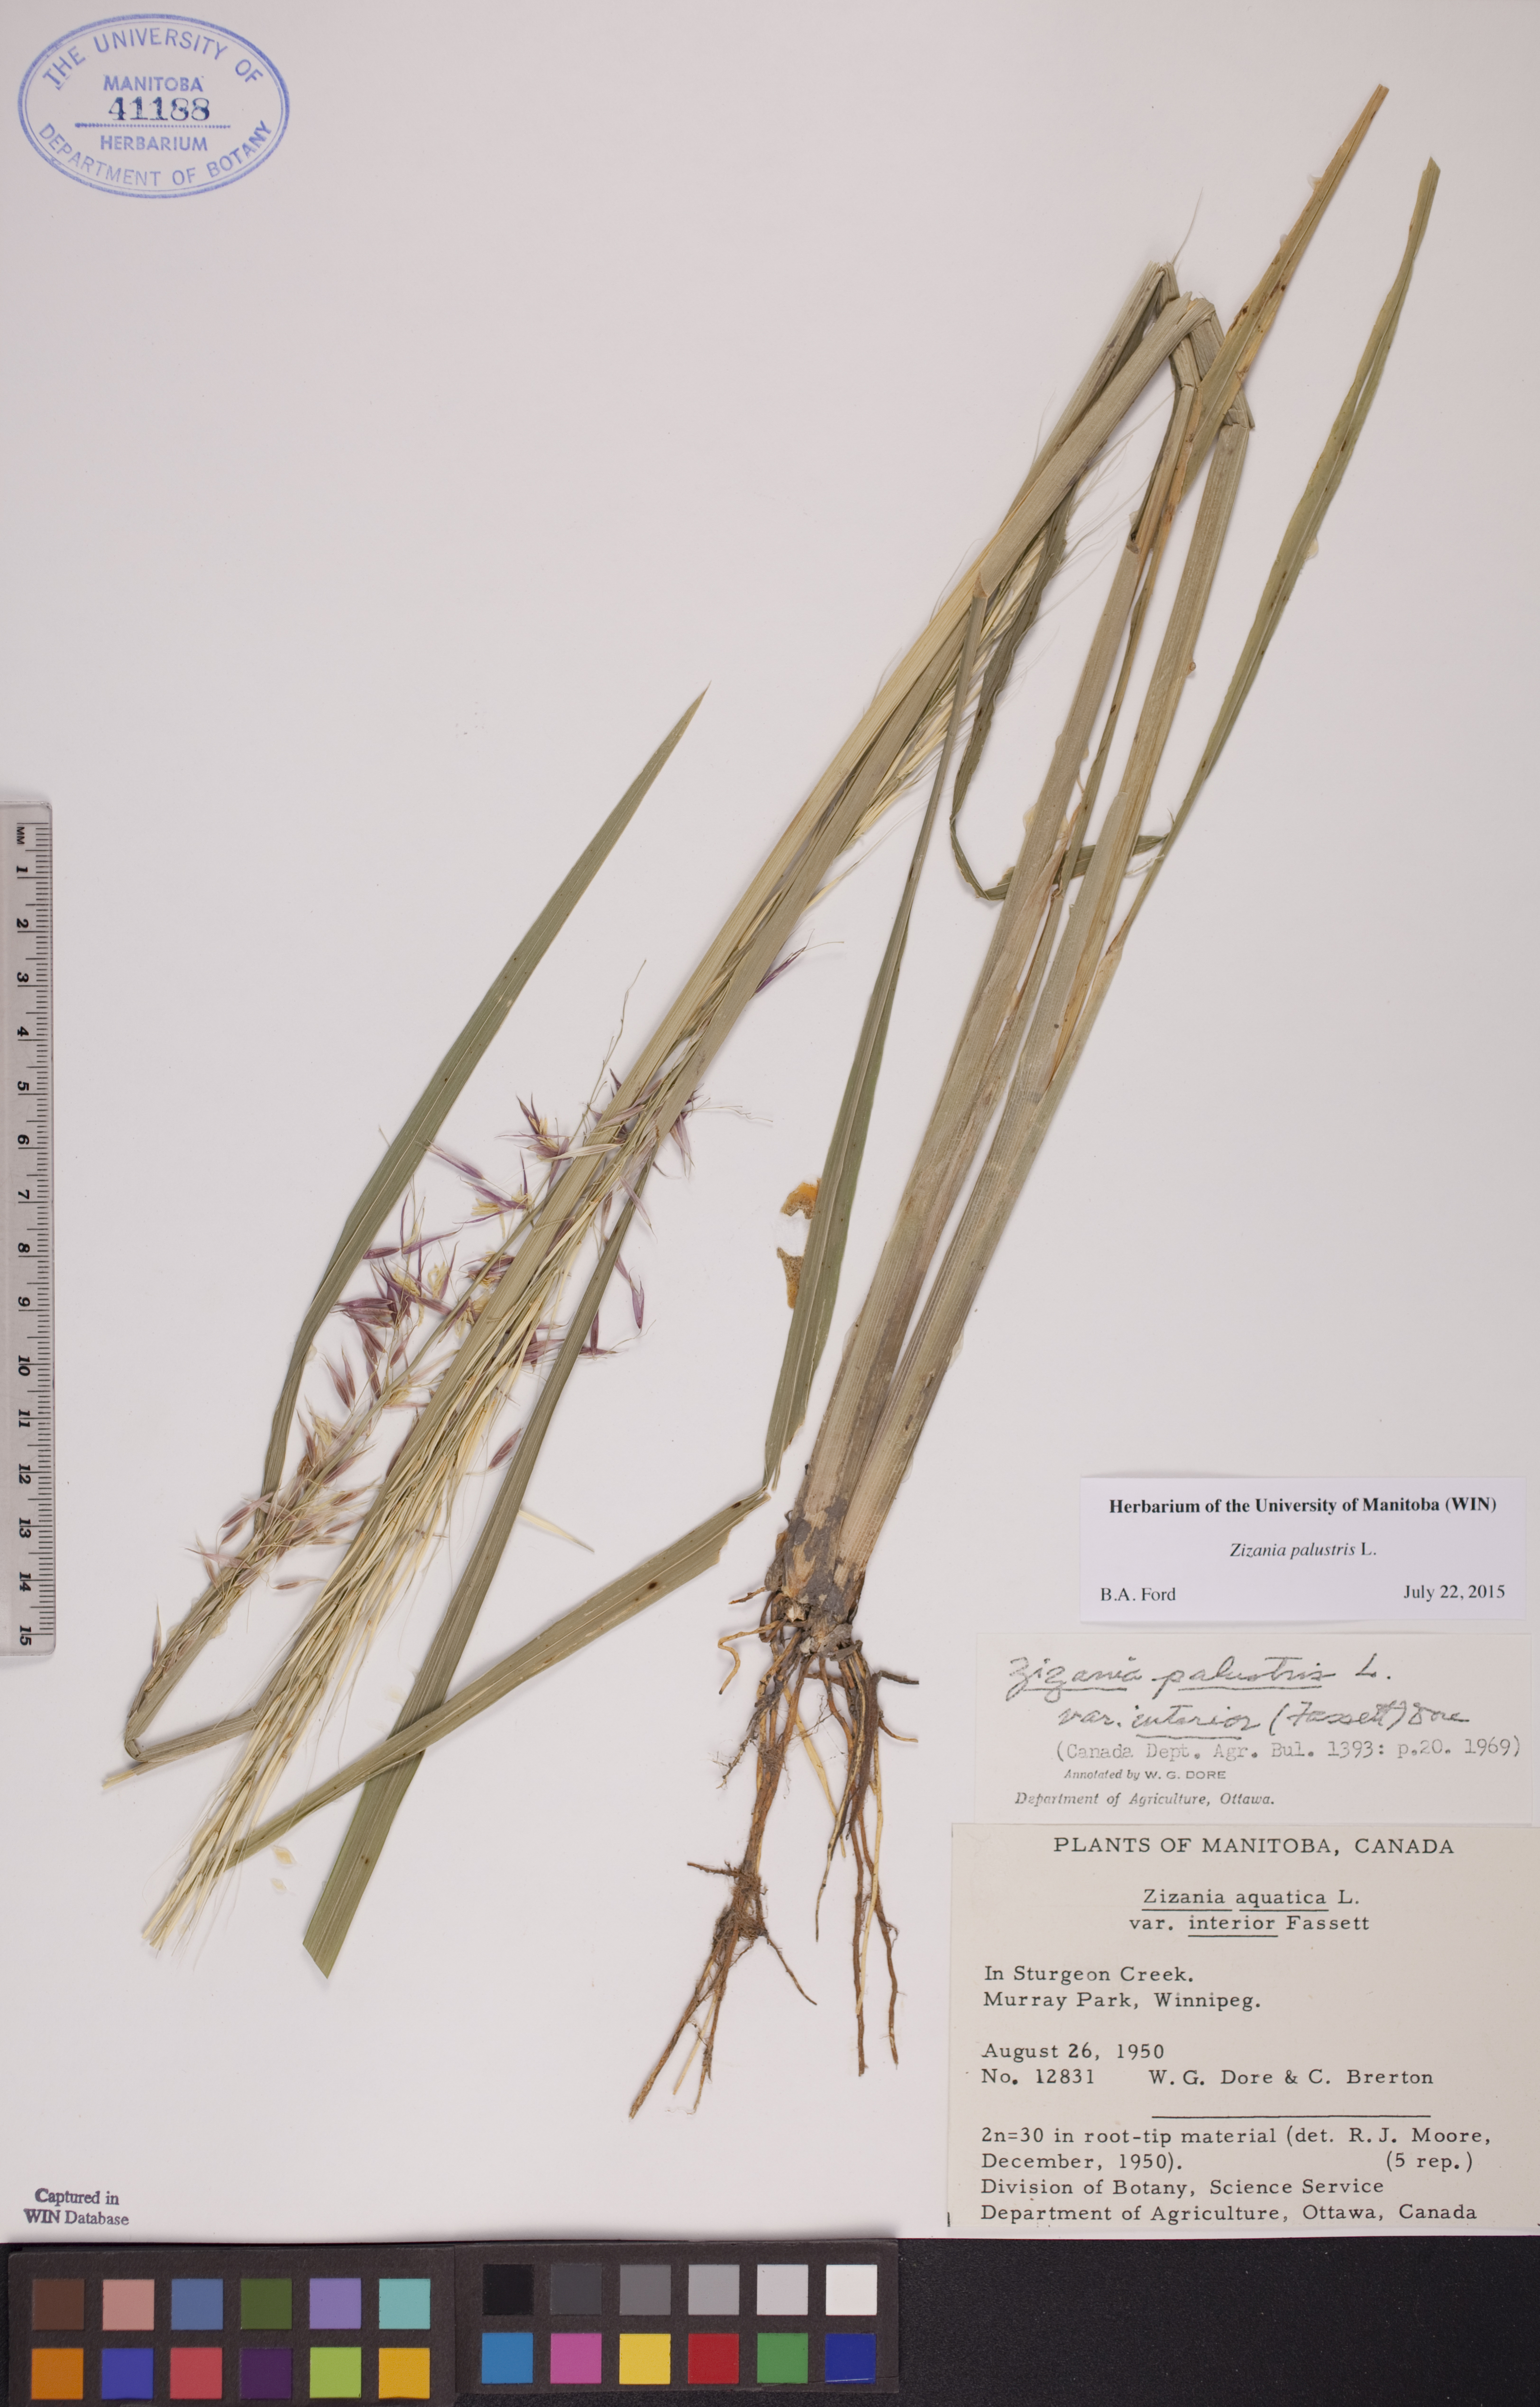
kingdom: Plantae
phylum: Tracheophyta
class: Liliopsida
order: Poales
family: Poaceae
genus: Zizania
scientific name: Zizania palustris
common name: Northern wild rice
